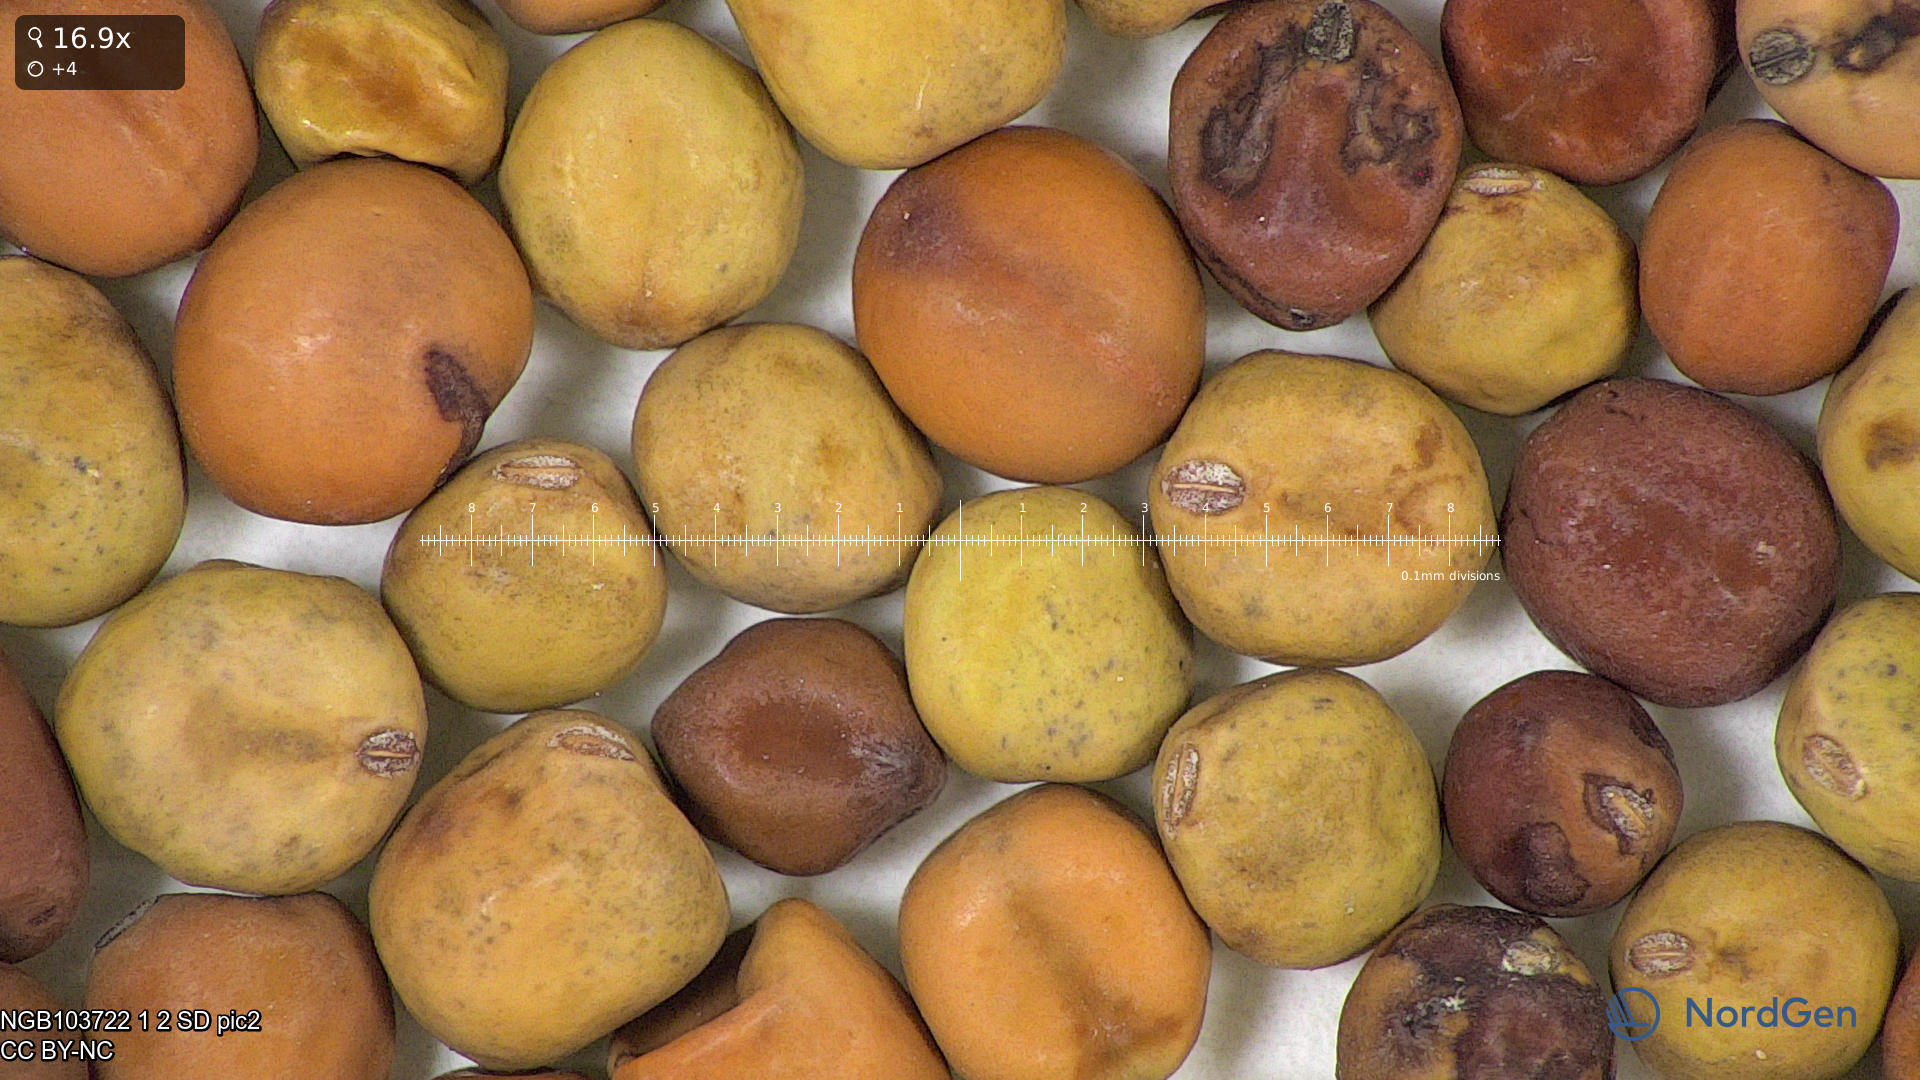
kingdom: Plantae
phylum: Tracheophyta
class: Magnoliopsida
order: Fabales
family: Fabaceae
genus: Lathyrus
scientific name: Lathyrus oleraceus
